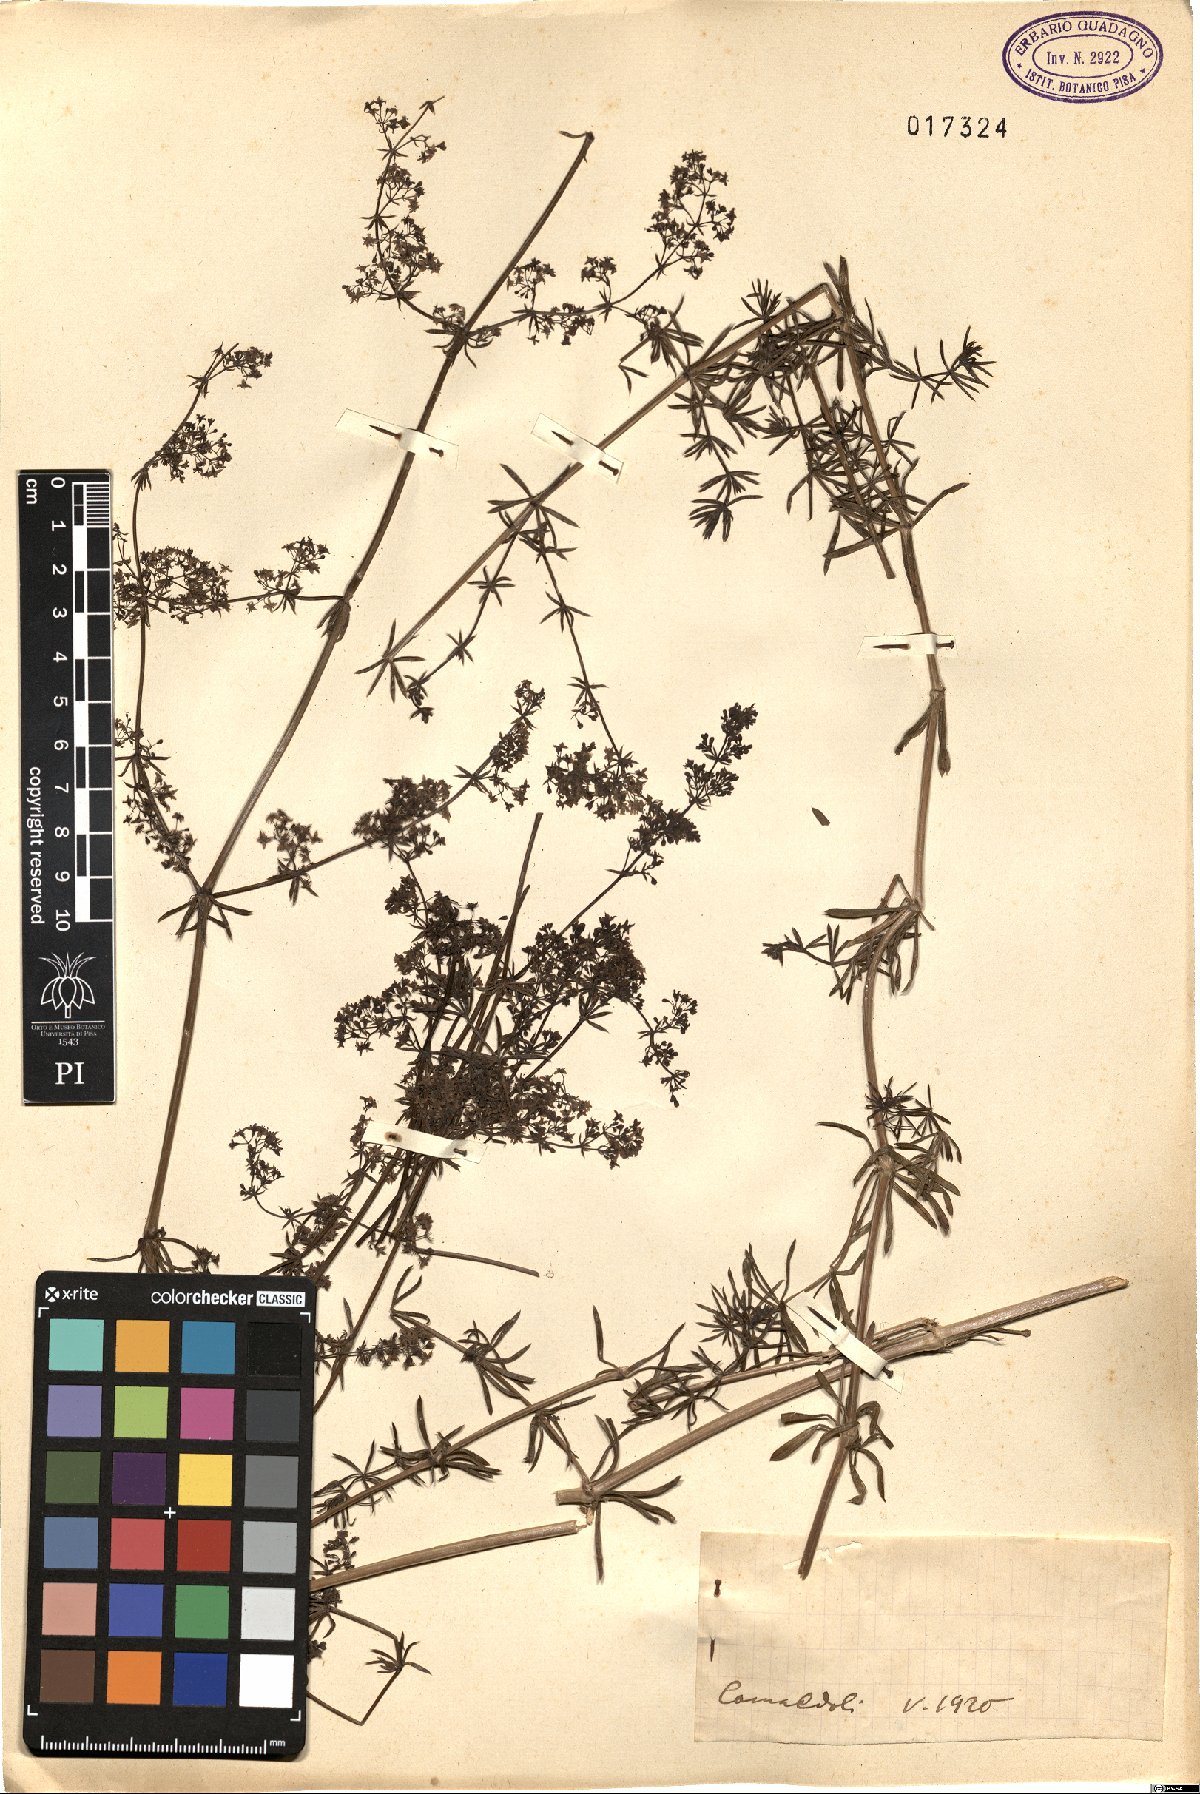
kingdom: Plantae
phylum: Tracheophyta
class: Magnoliopsida
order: Gentianales
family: Rubiaceae
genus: Galium
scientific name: Galium
